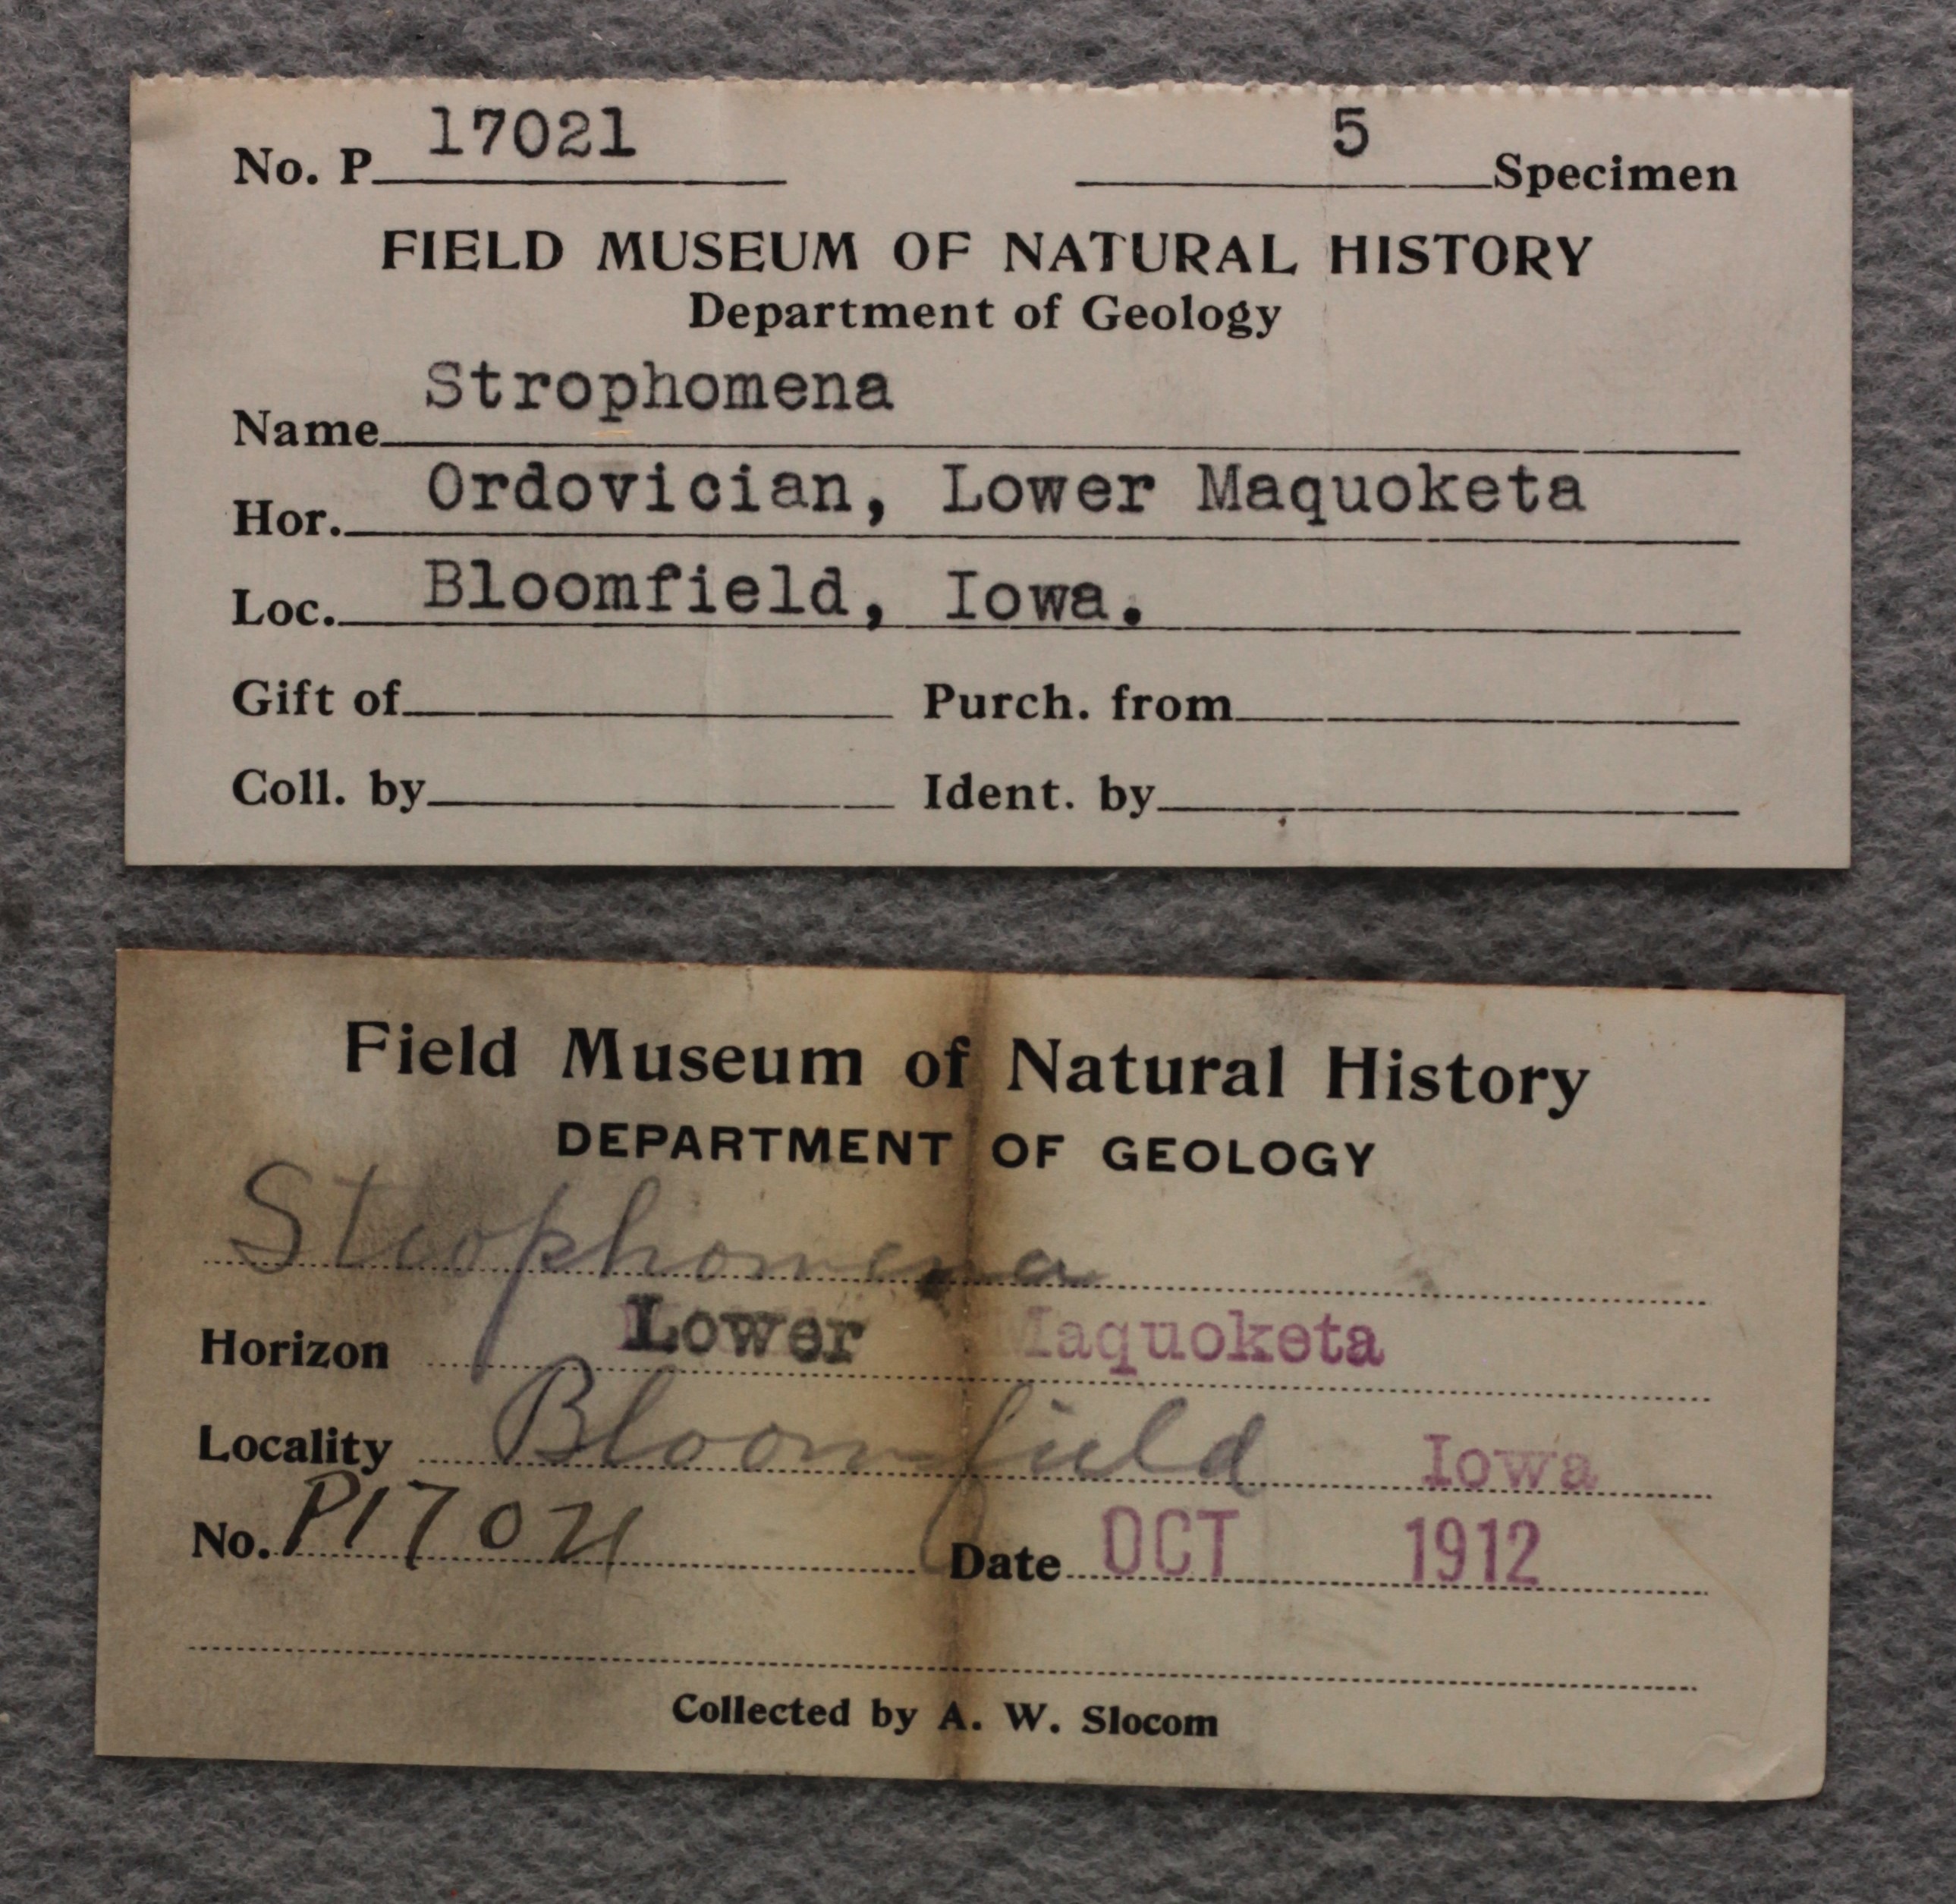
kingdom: Animalia
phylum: Brachiopoda
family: Strophomenidae
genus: Strophomena
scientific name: Strophomena
